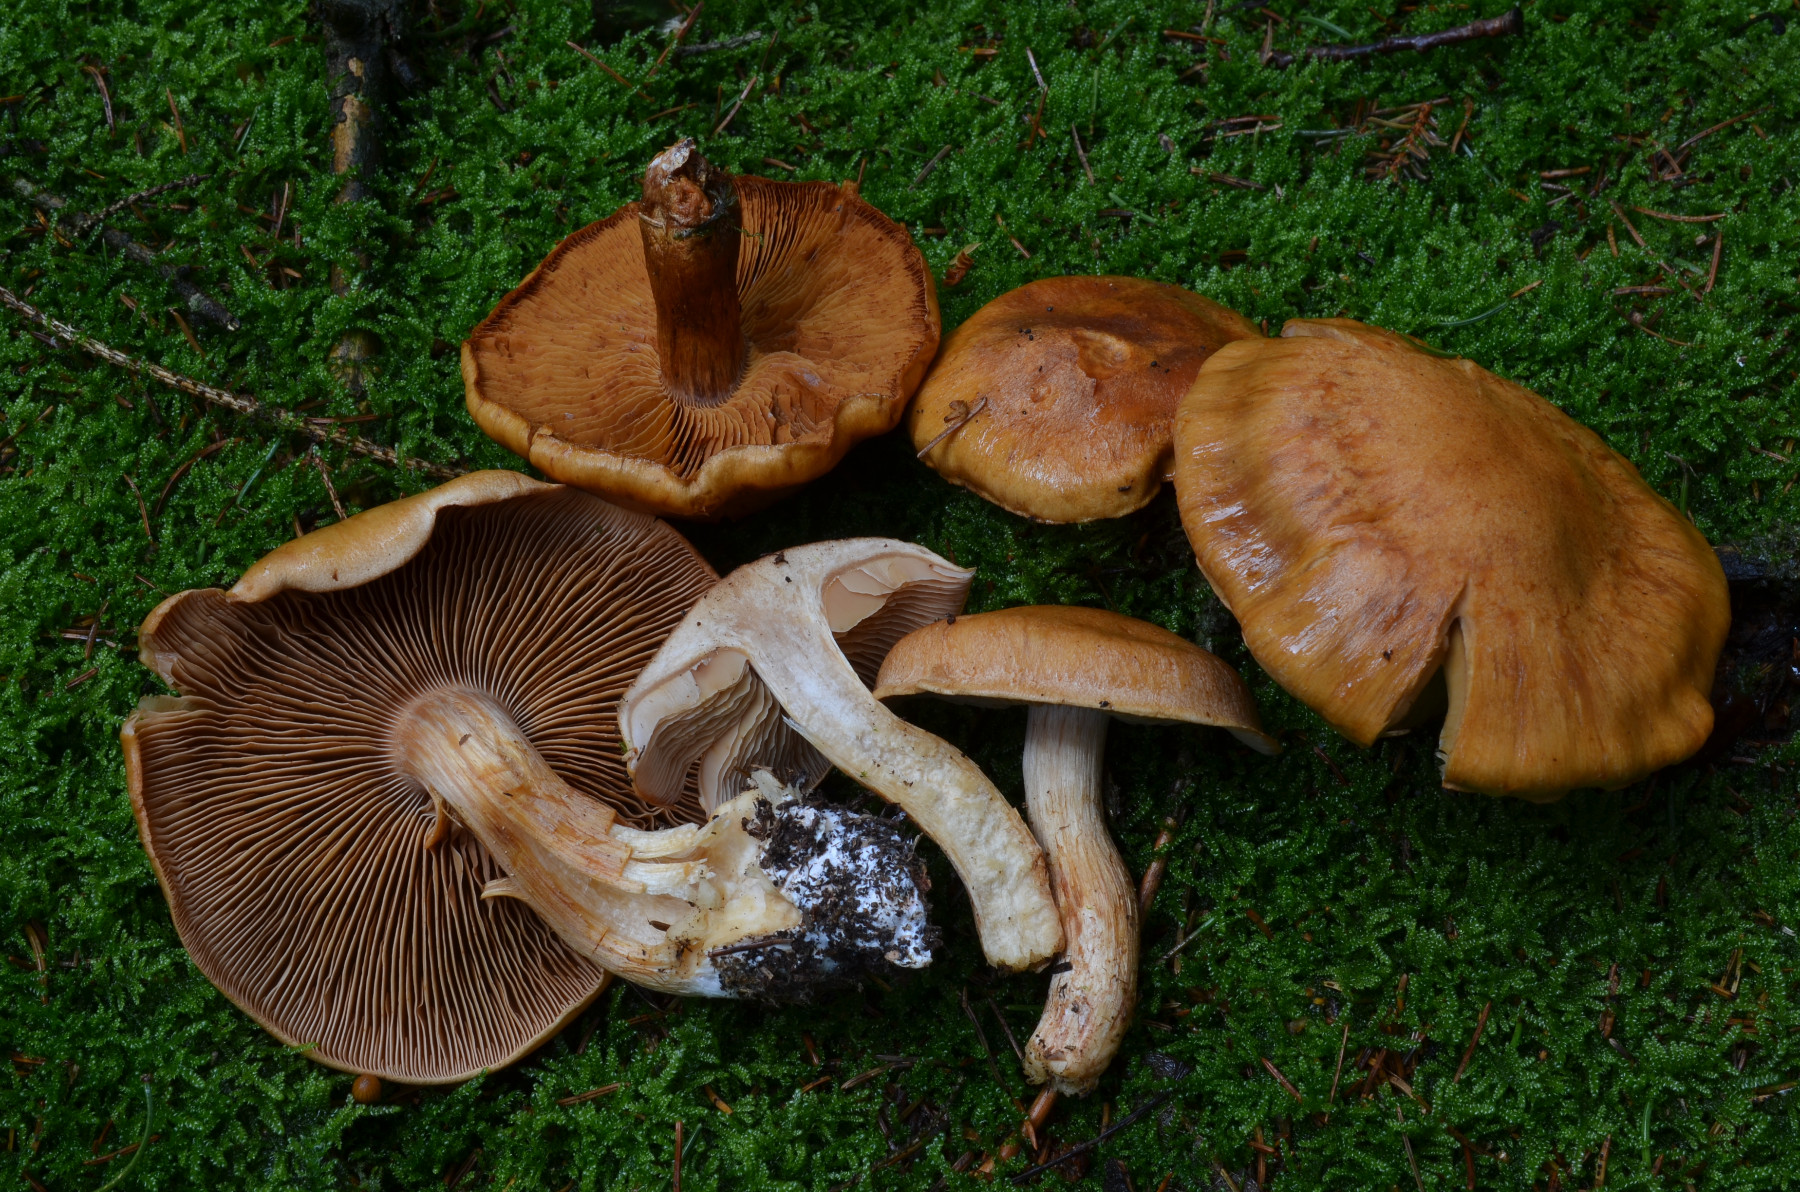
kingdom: Fungi
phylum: Basidiomycota
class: Agaricomycetes
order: Agaricales
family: Cortinariaceae
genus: Thaxterogaster
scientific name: Thaxterogaster vespertinus
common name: blegfodet slørhat
